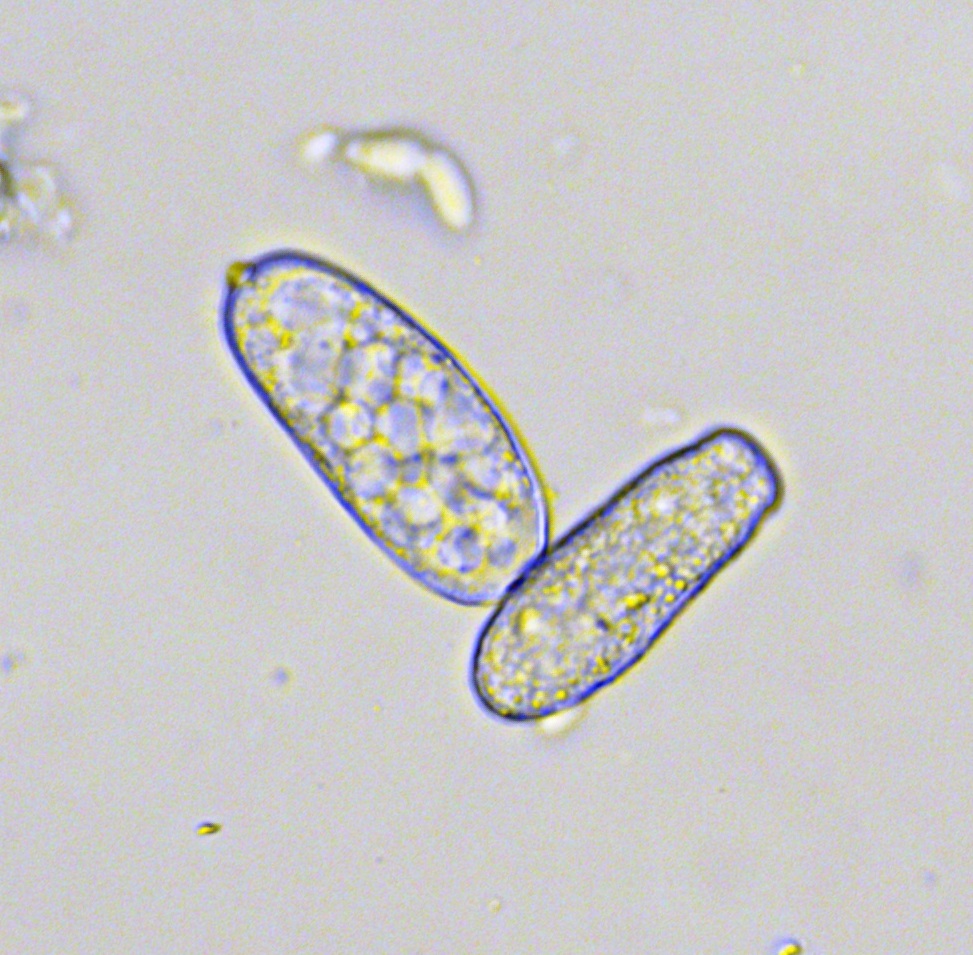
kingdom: Fungi
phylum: Ascomycota
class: Leotiomycetes
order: Helotiales
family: Erysiphaceae
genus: Erysiphe
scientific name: Erysiphe macleayae
